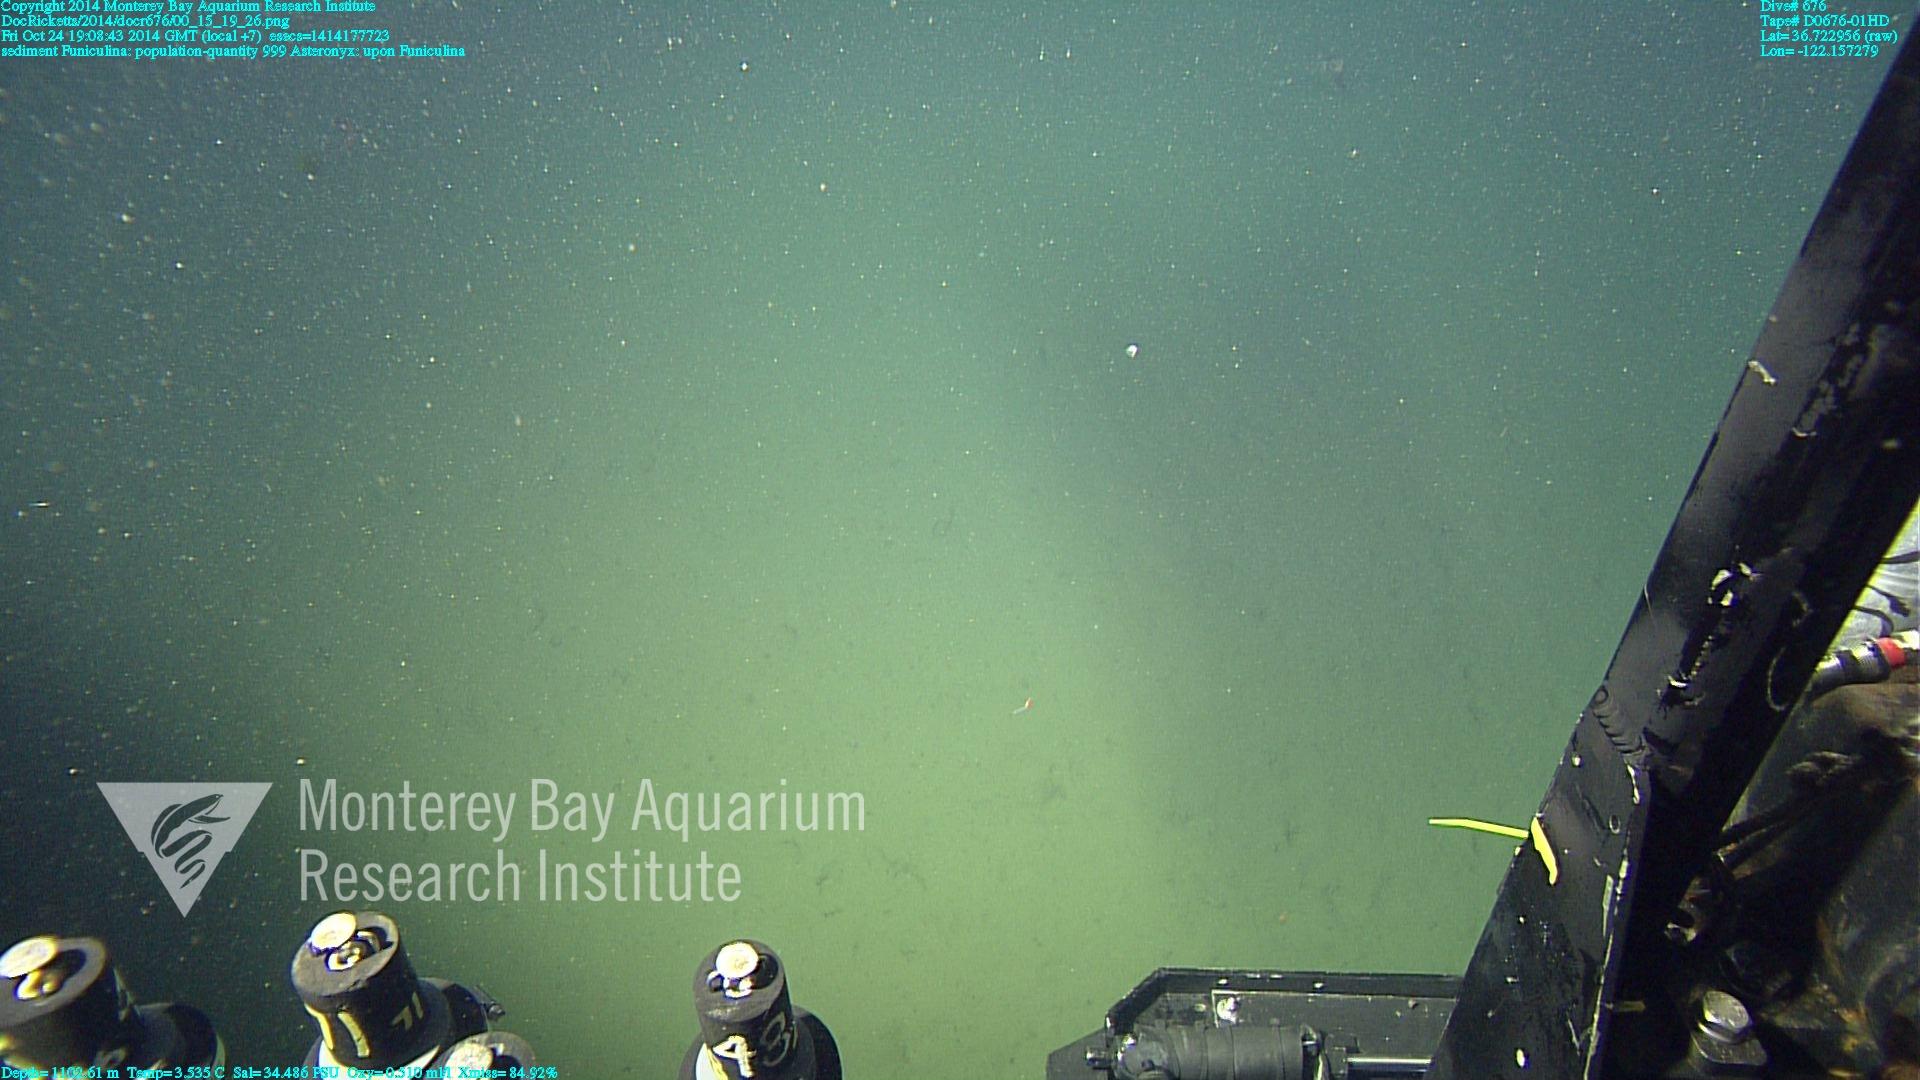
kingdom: Animalia
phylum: Cnidaria
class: Anthozoa
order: Scleralcyonacea
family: Funiculinidae
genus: Funiculina
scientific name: Funiculina
